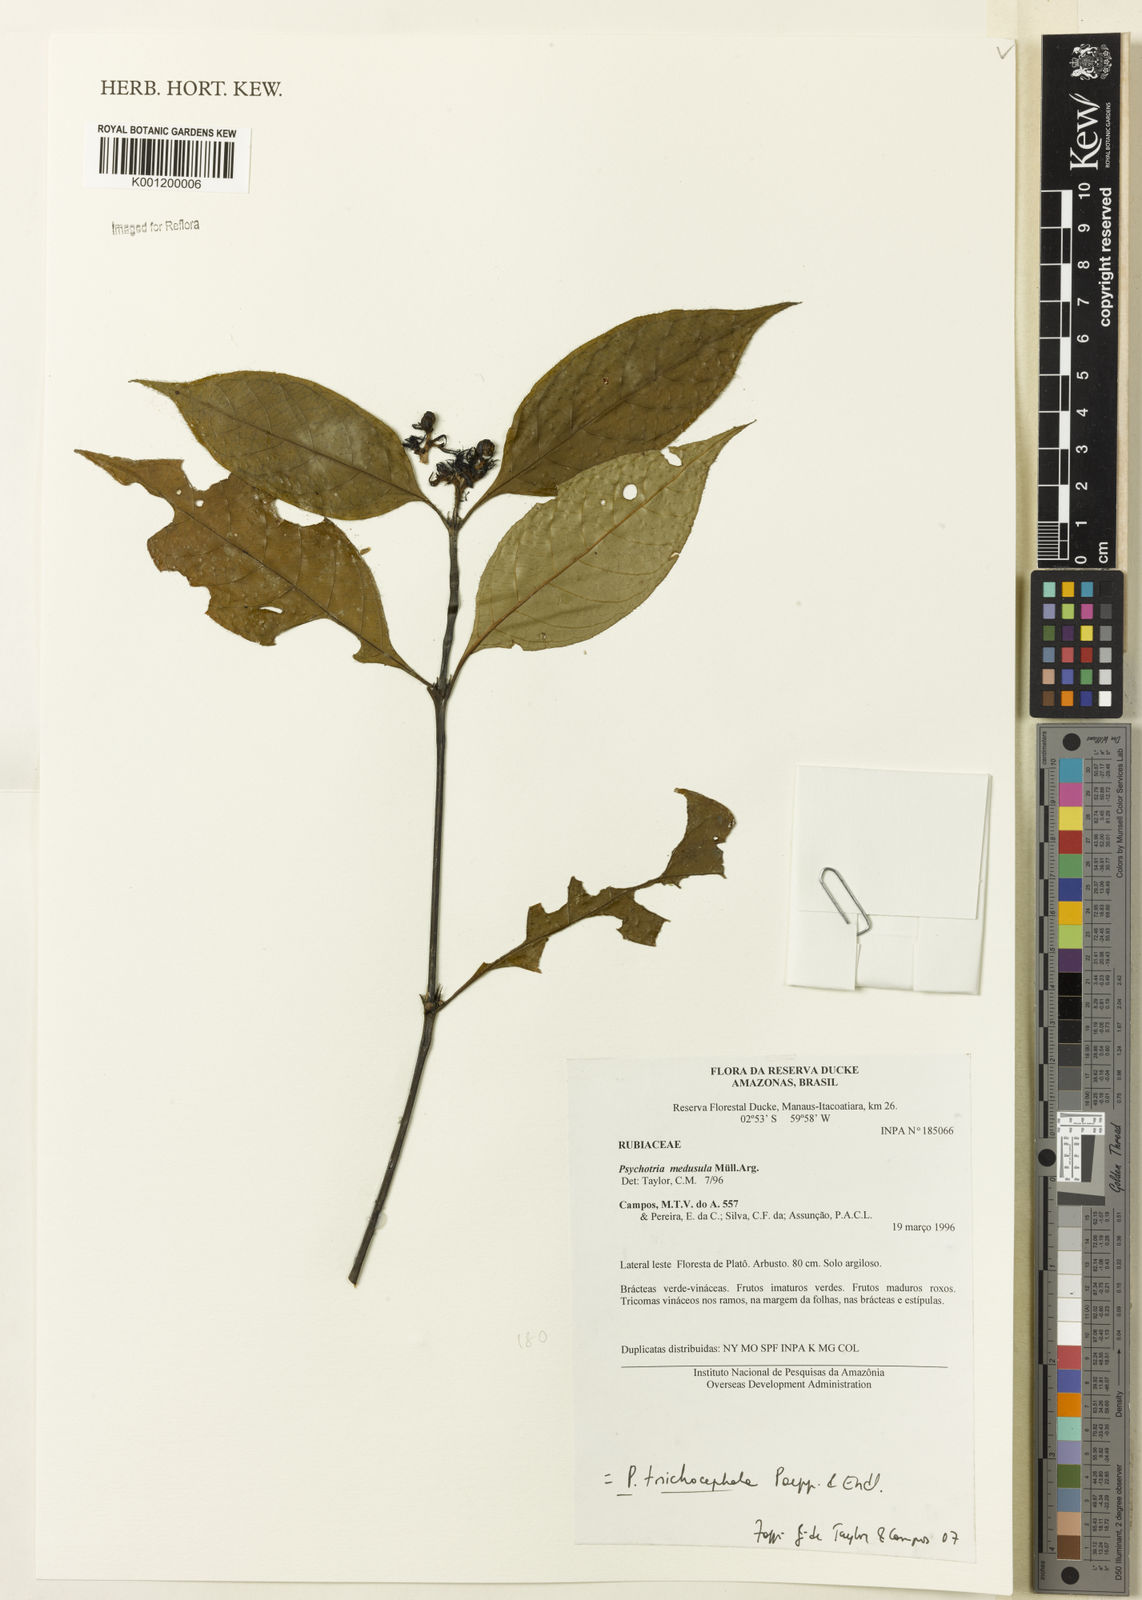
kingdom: Plantae
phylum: Tracheophyta
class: Magnoliopsida
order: Gentianales
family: Rubiaceae
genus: Psychotria
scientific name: Psychotria
